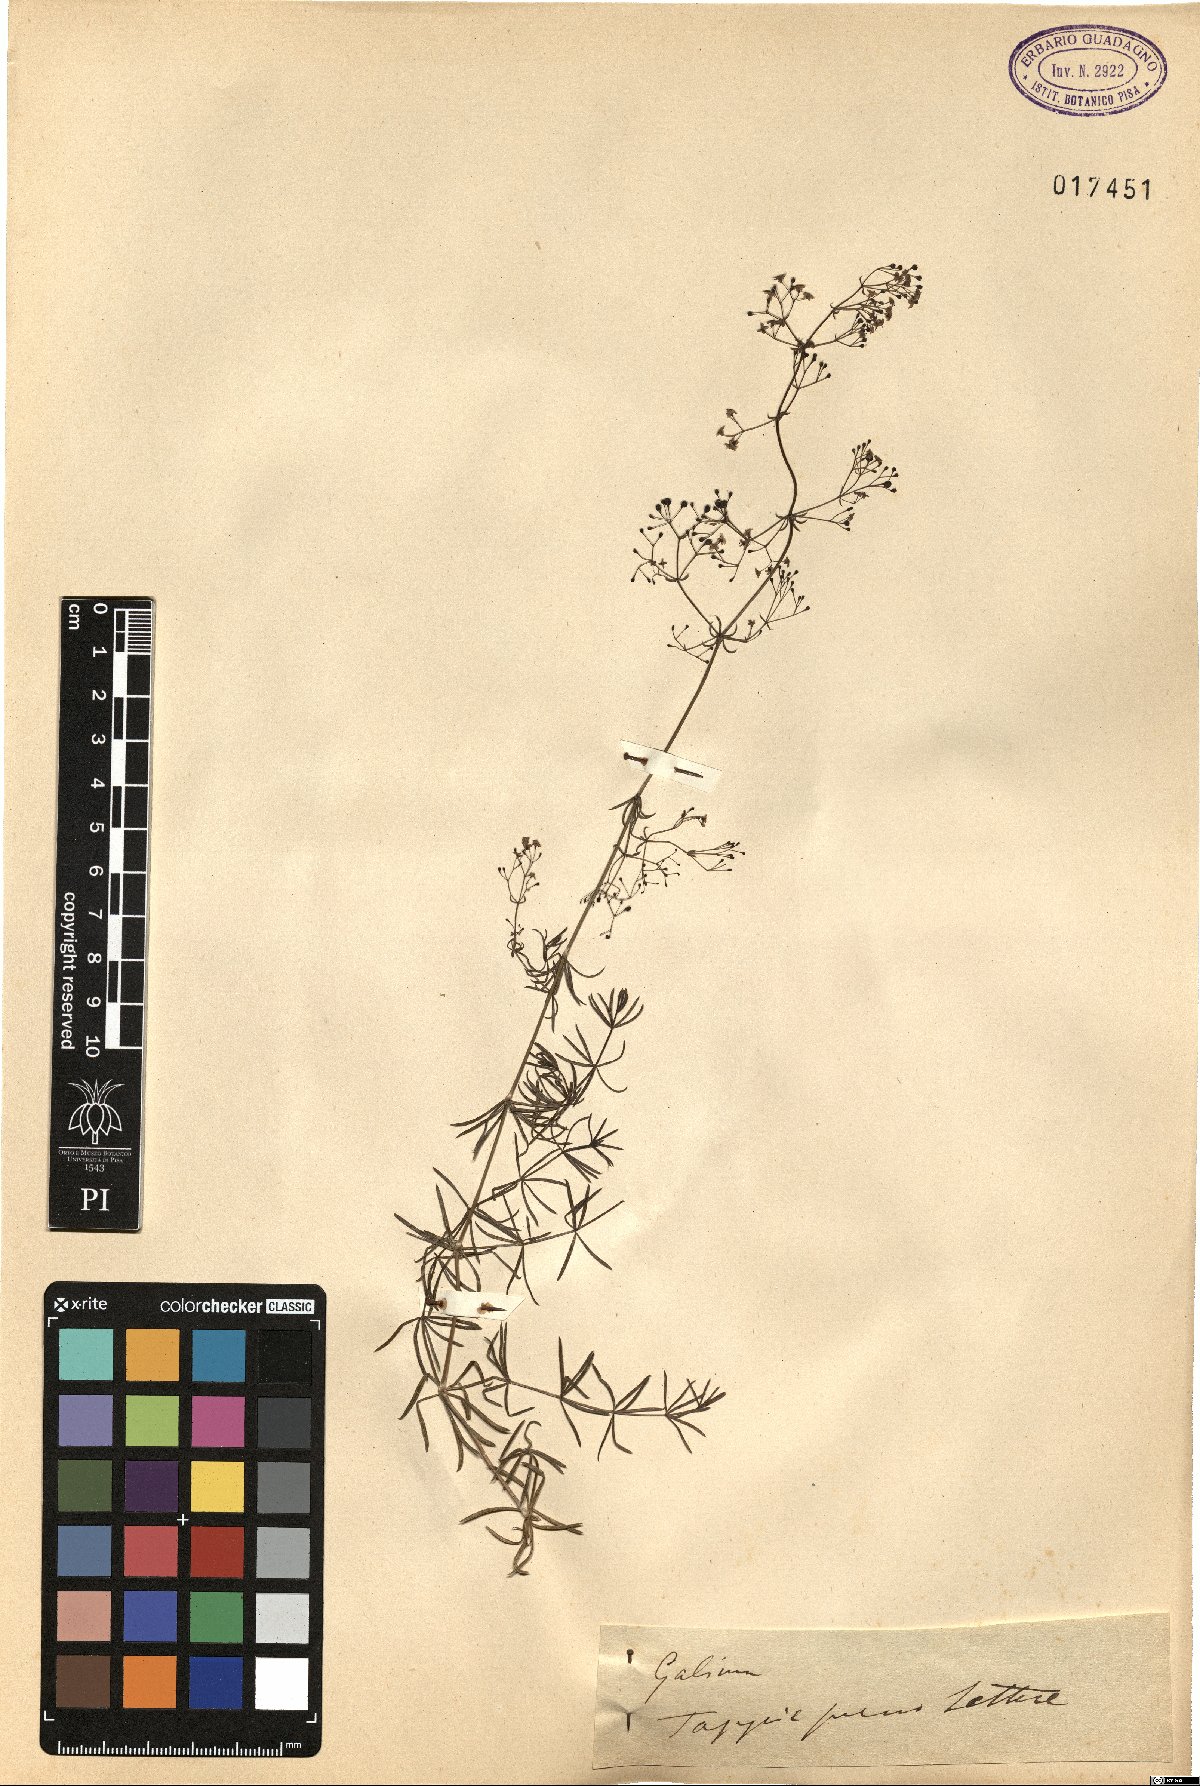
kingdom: Plantae
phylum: Tracheophyta
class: Magnoliopsida
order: Gentianales
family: Rubiaceae
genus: Galium
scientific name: Galium
